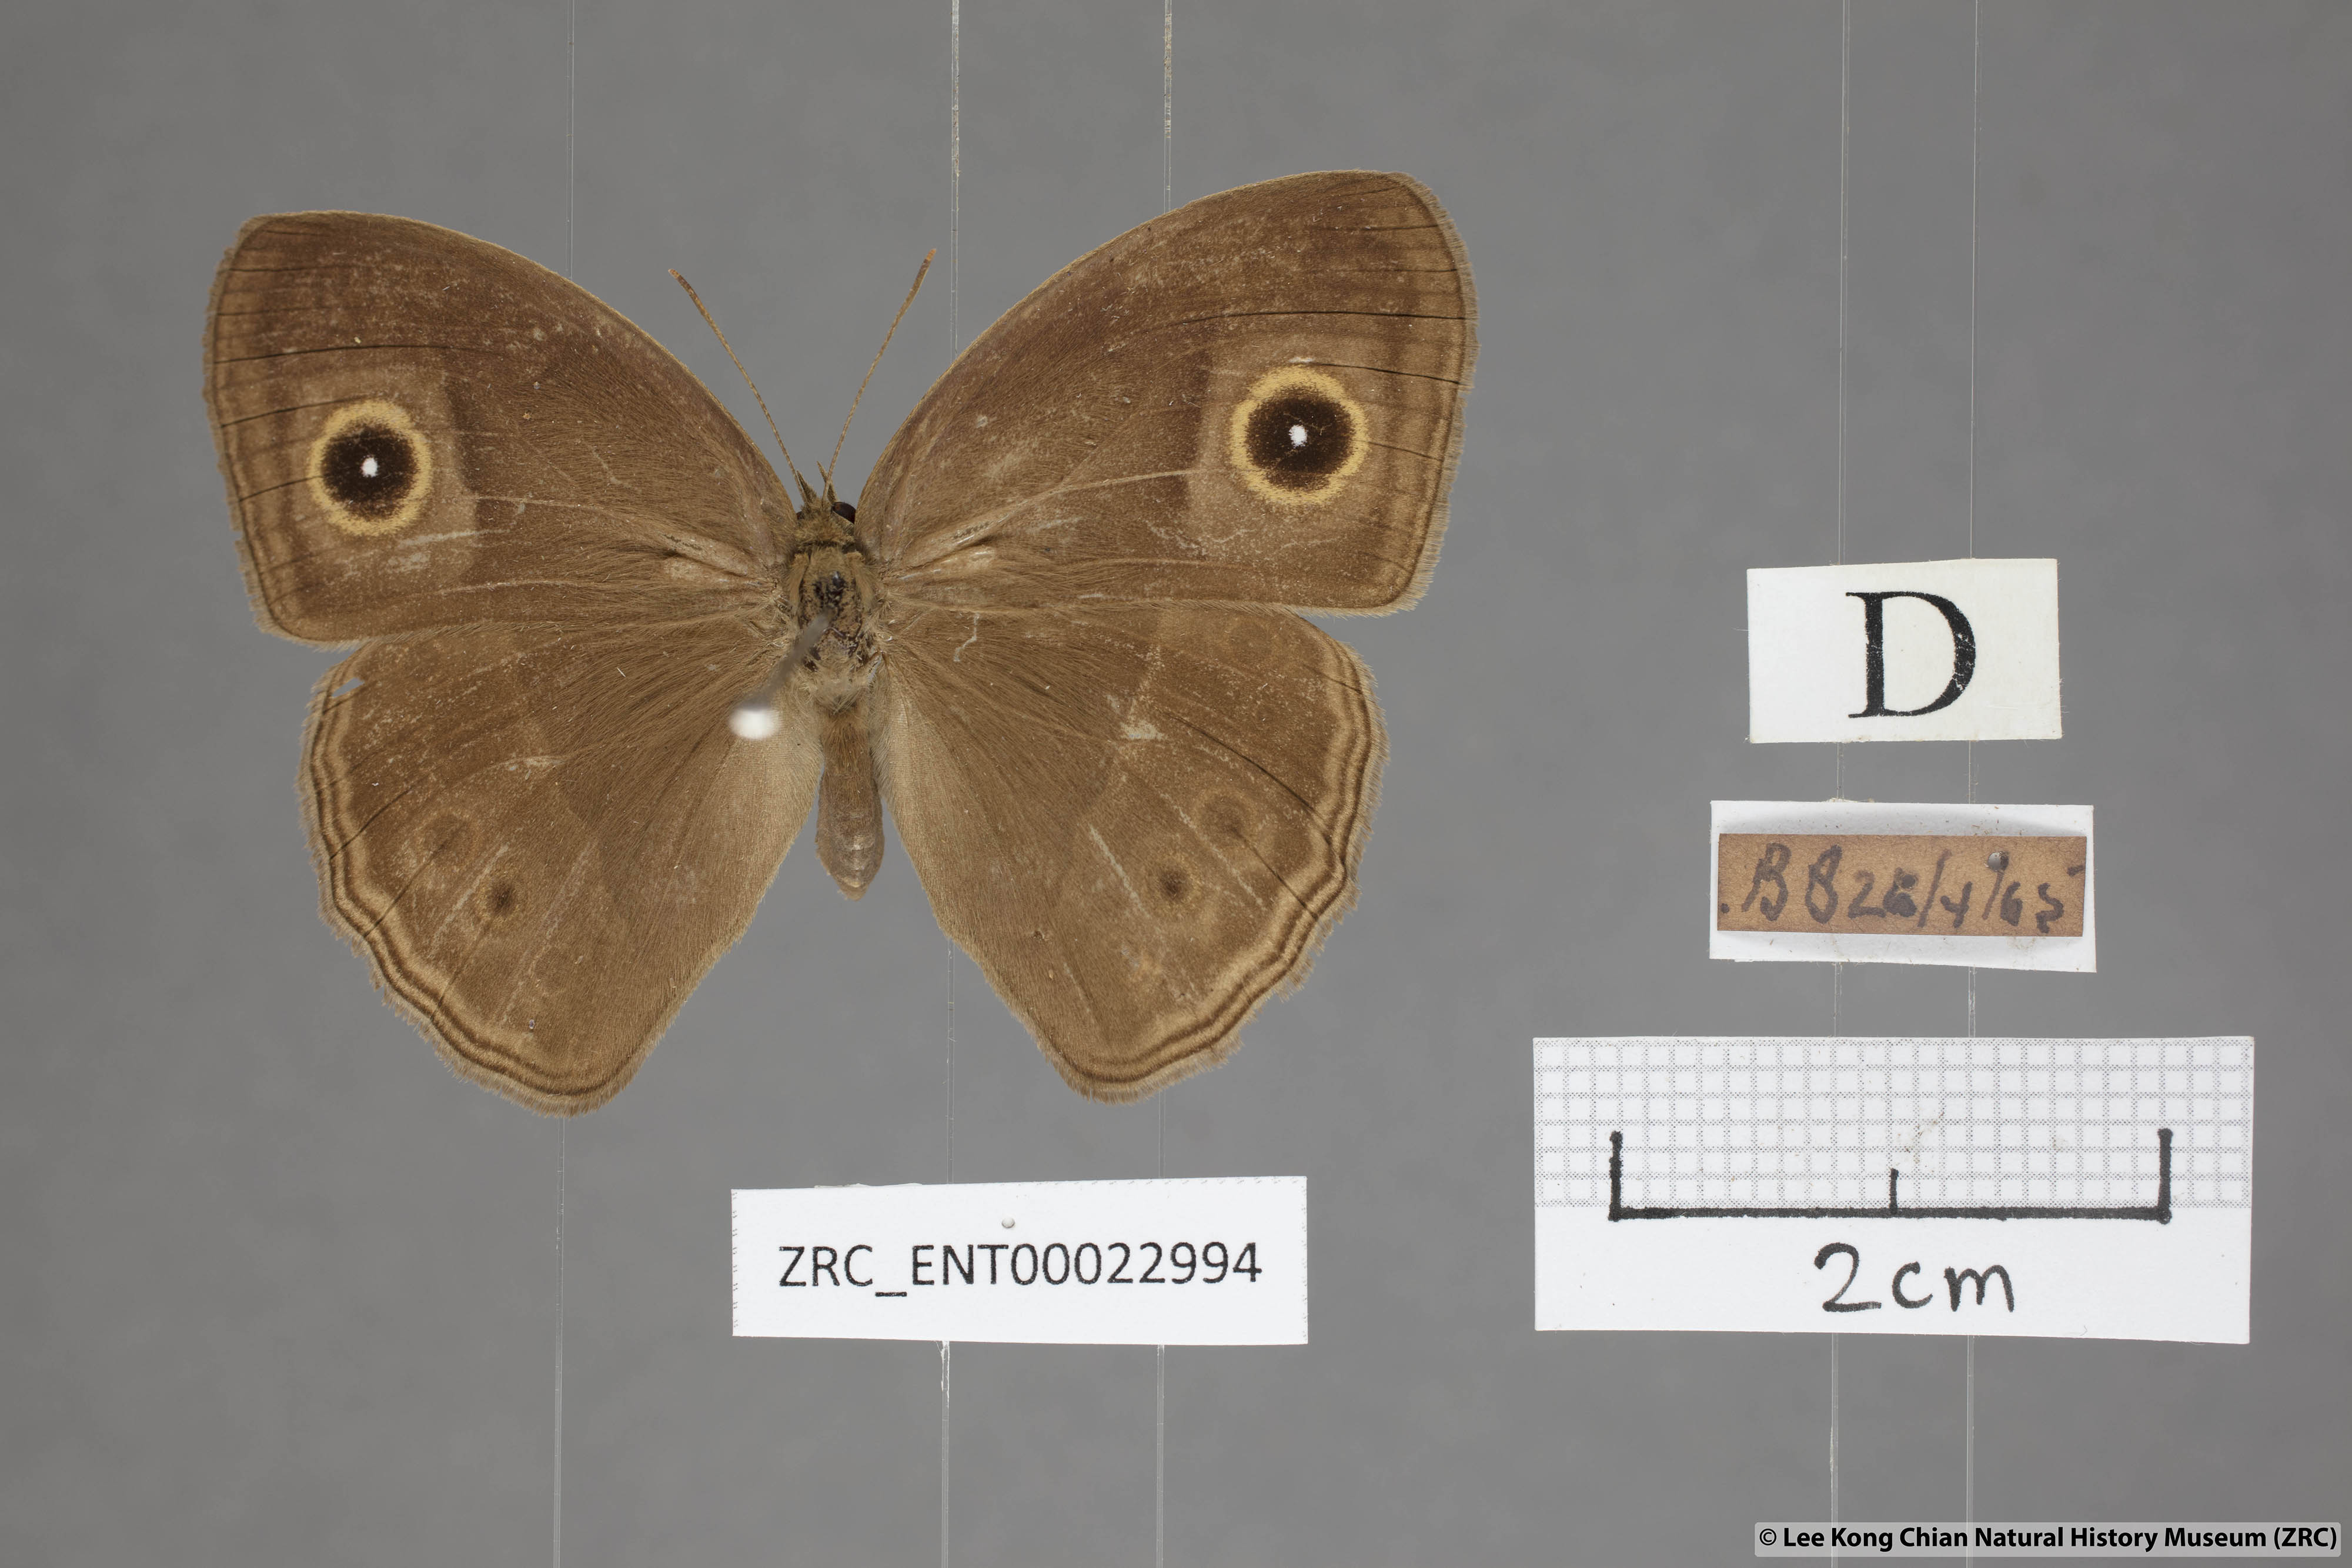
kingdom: Animalia
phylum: Arthropoda
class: Insecta
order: Lepidoptera
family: Nymphalidae
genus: Mycalesis
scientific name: Mycalesis perseoides
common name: Burmese bushbrown
